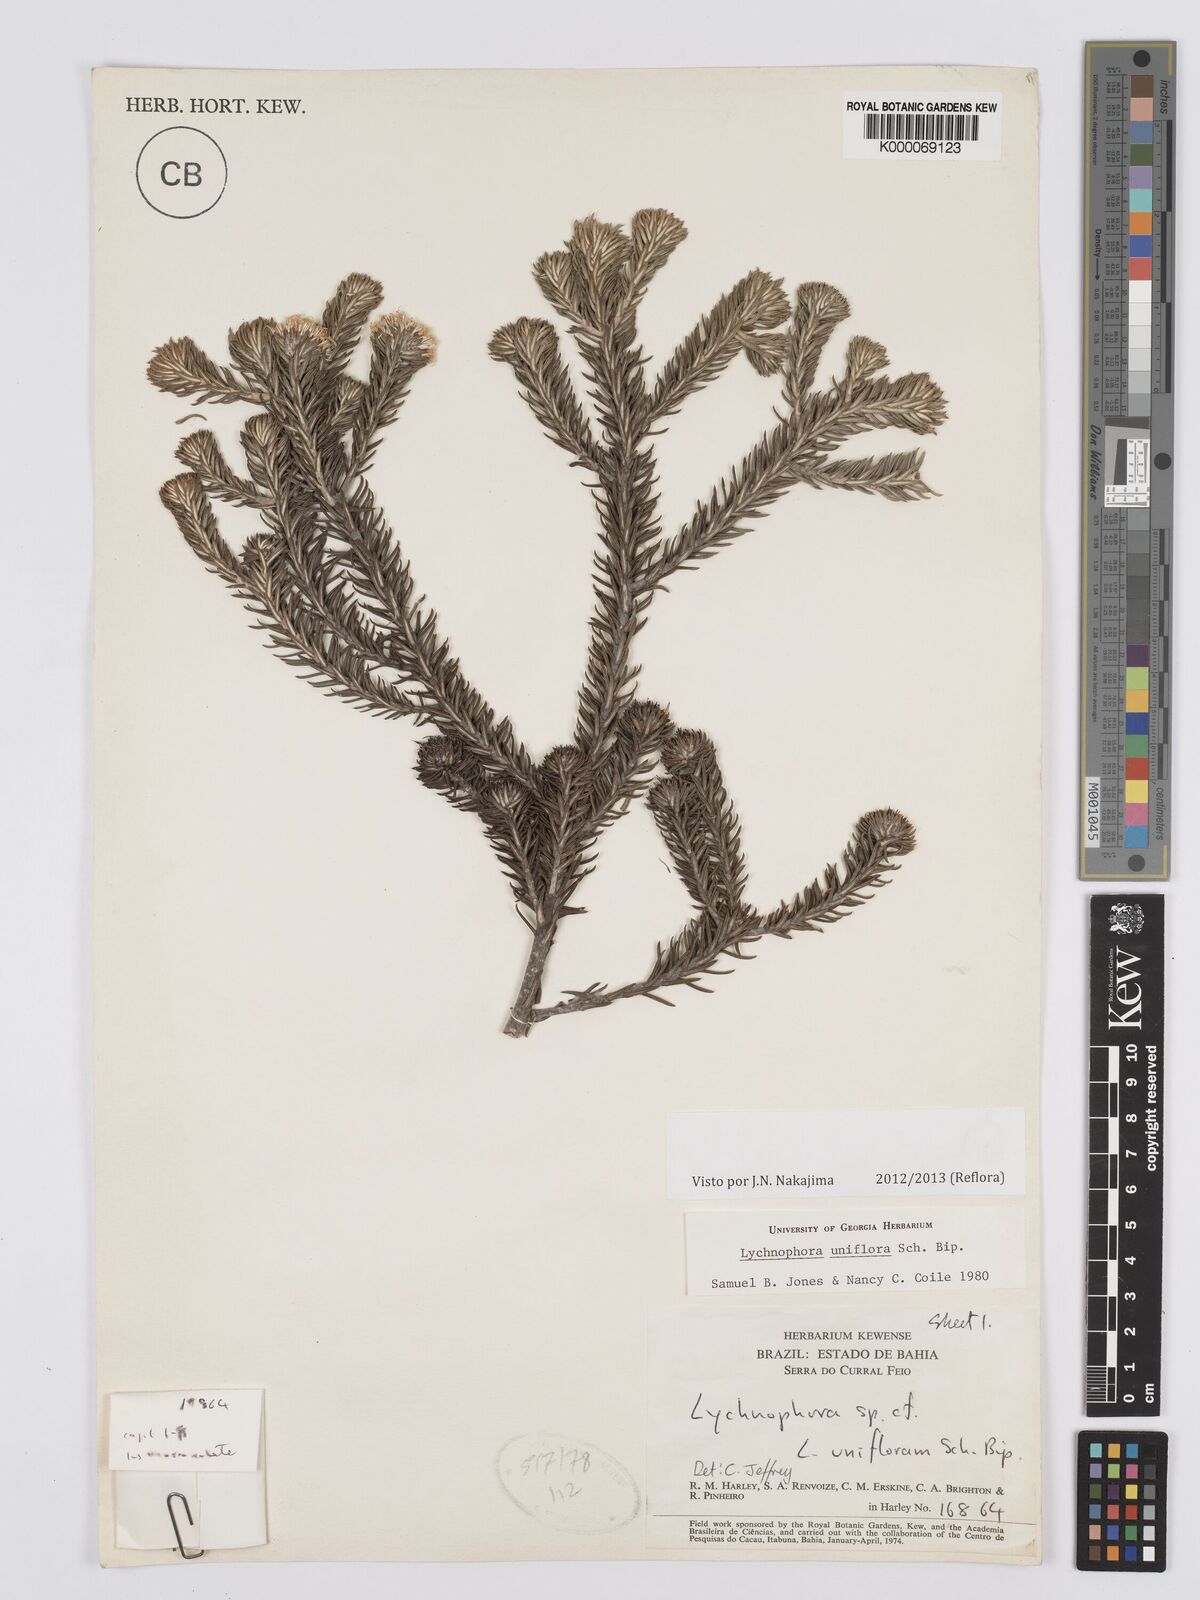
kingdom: Plantae
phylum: Tracheophyta
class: Magnoliopsida
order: Asterales
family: Asteraceae
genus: Lychnophora
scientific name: Lychnophora uniflora
